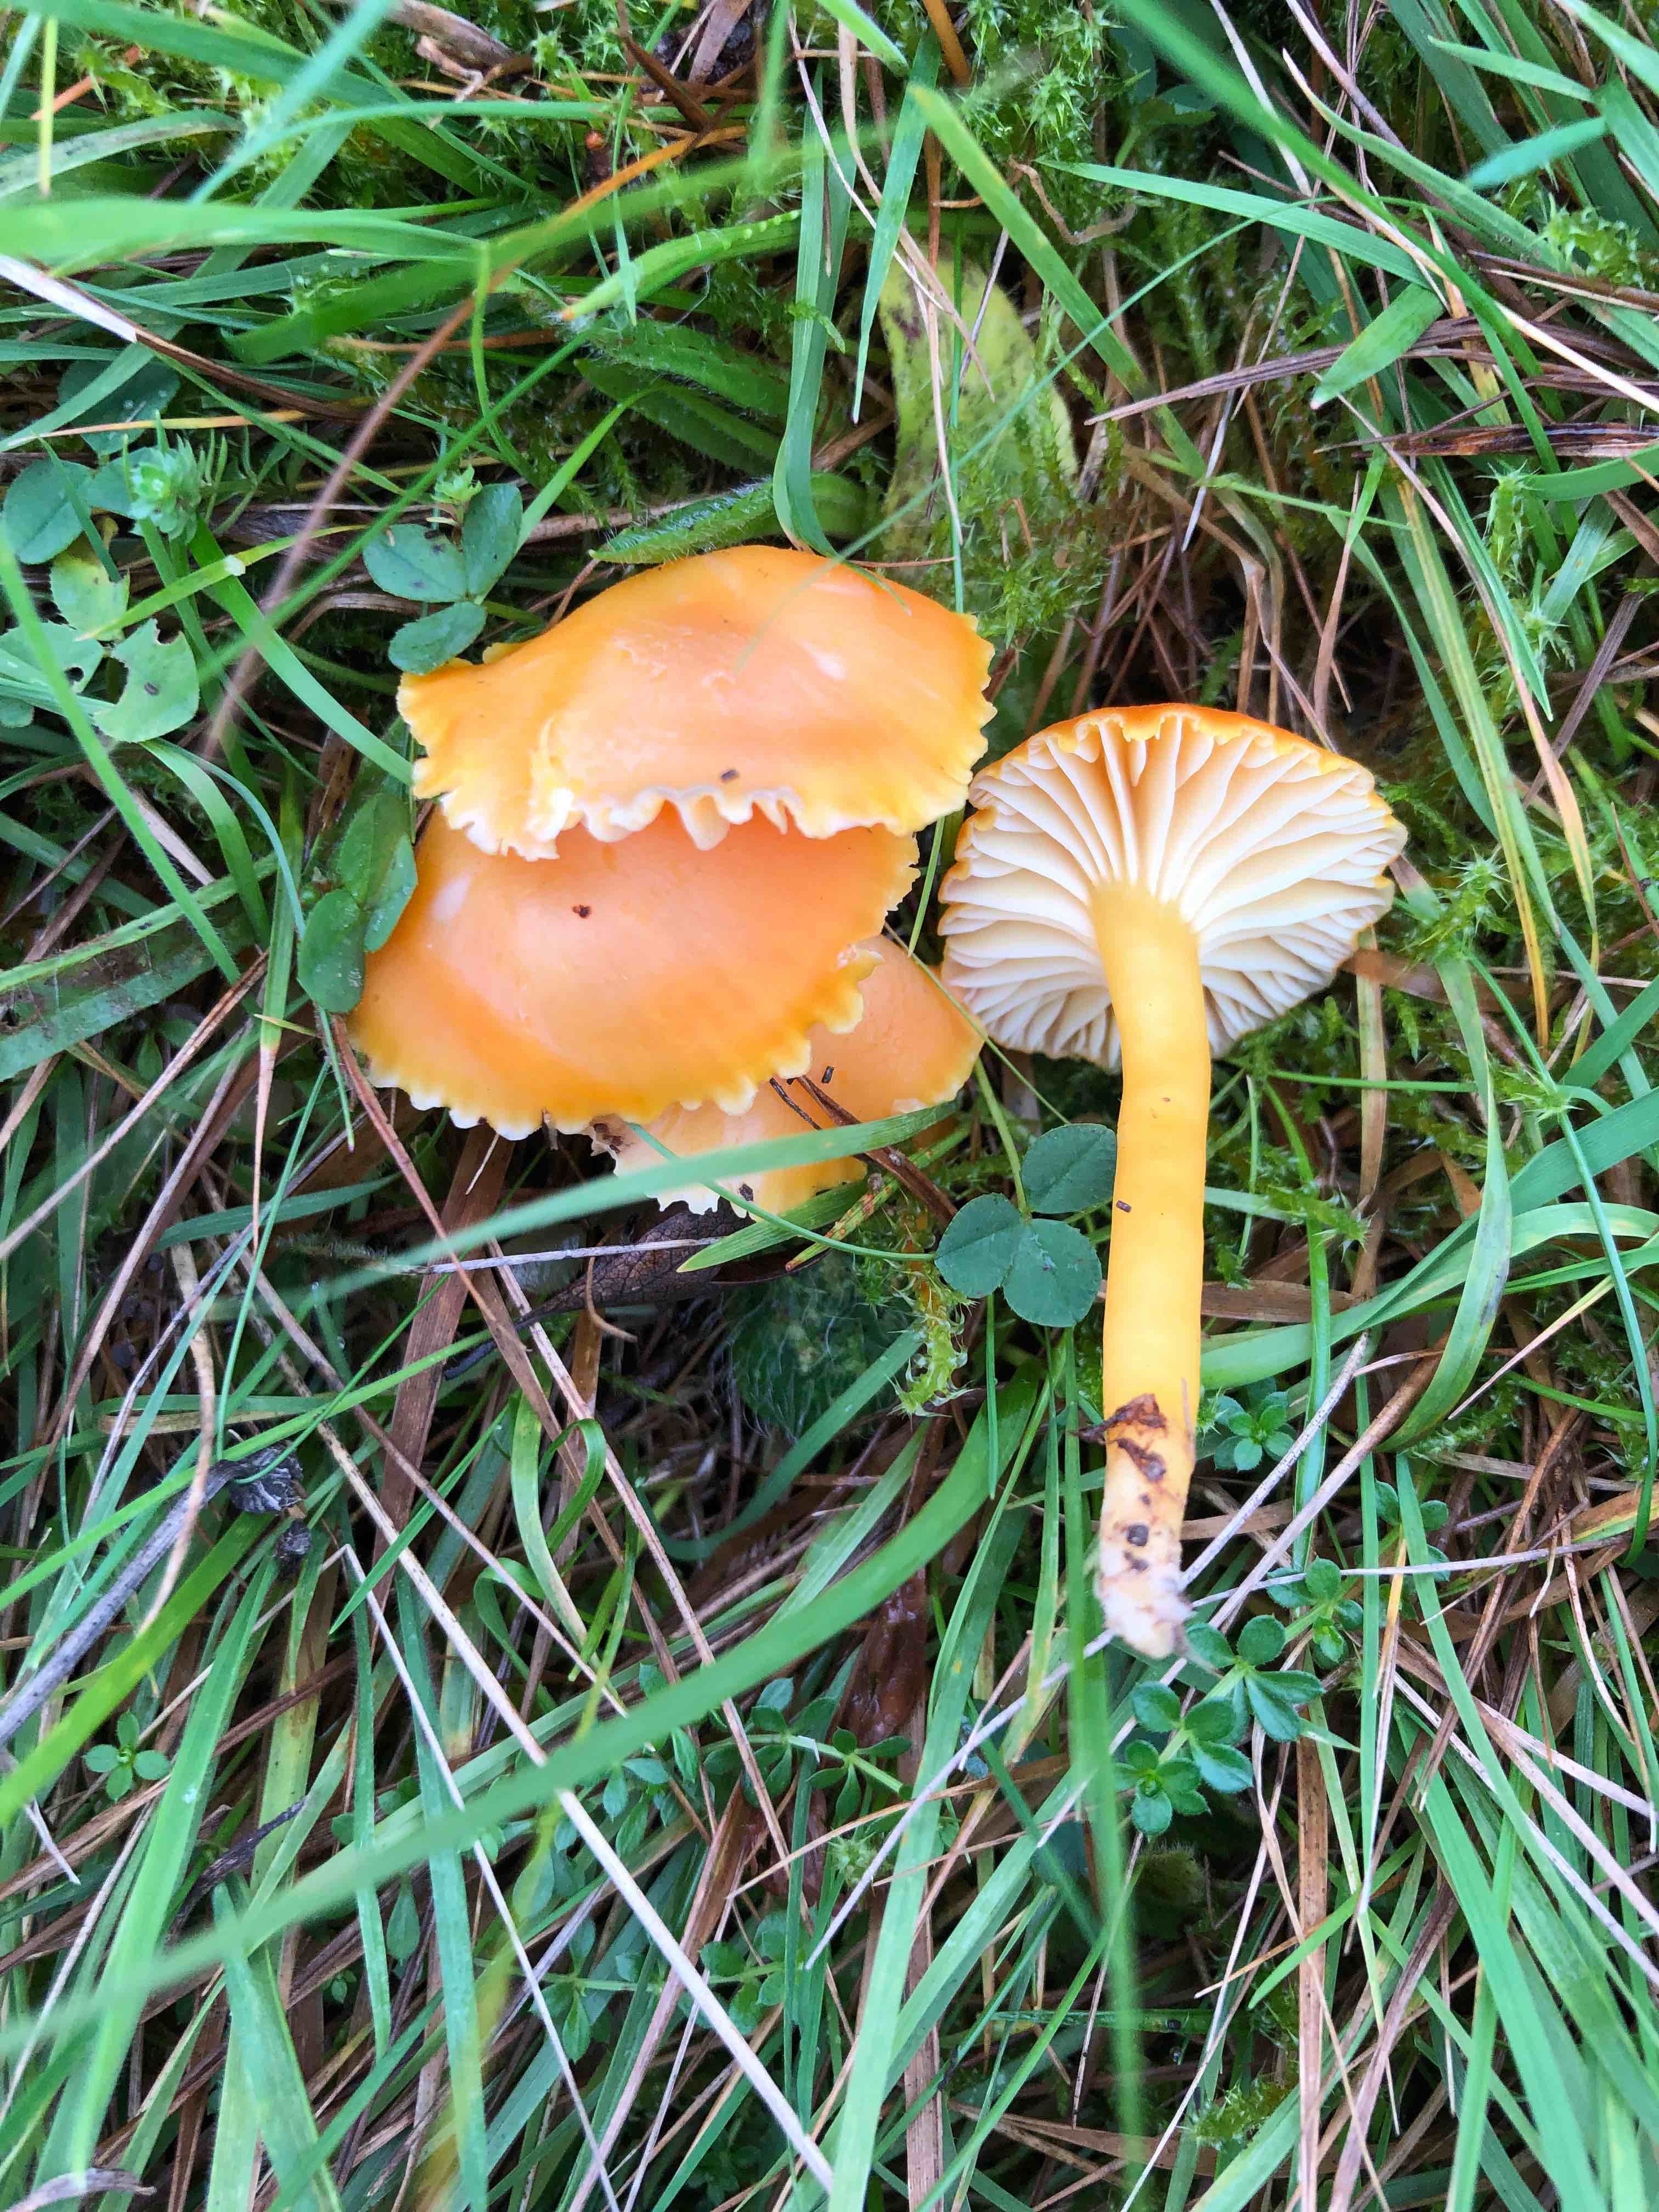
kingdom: Fungi
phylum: Basidiomycota
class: Agaricomycetes
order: Agaricales
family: Hygrophoraceae
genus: Hygrocybe
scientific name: Hygrocybe reidii
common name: honning-vokshat
